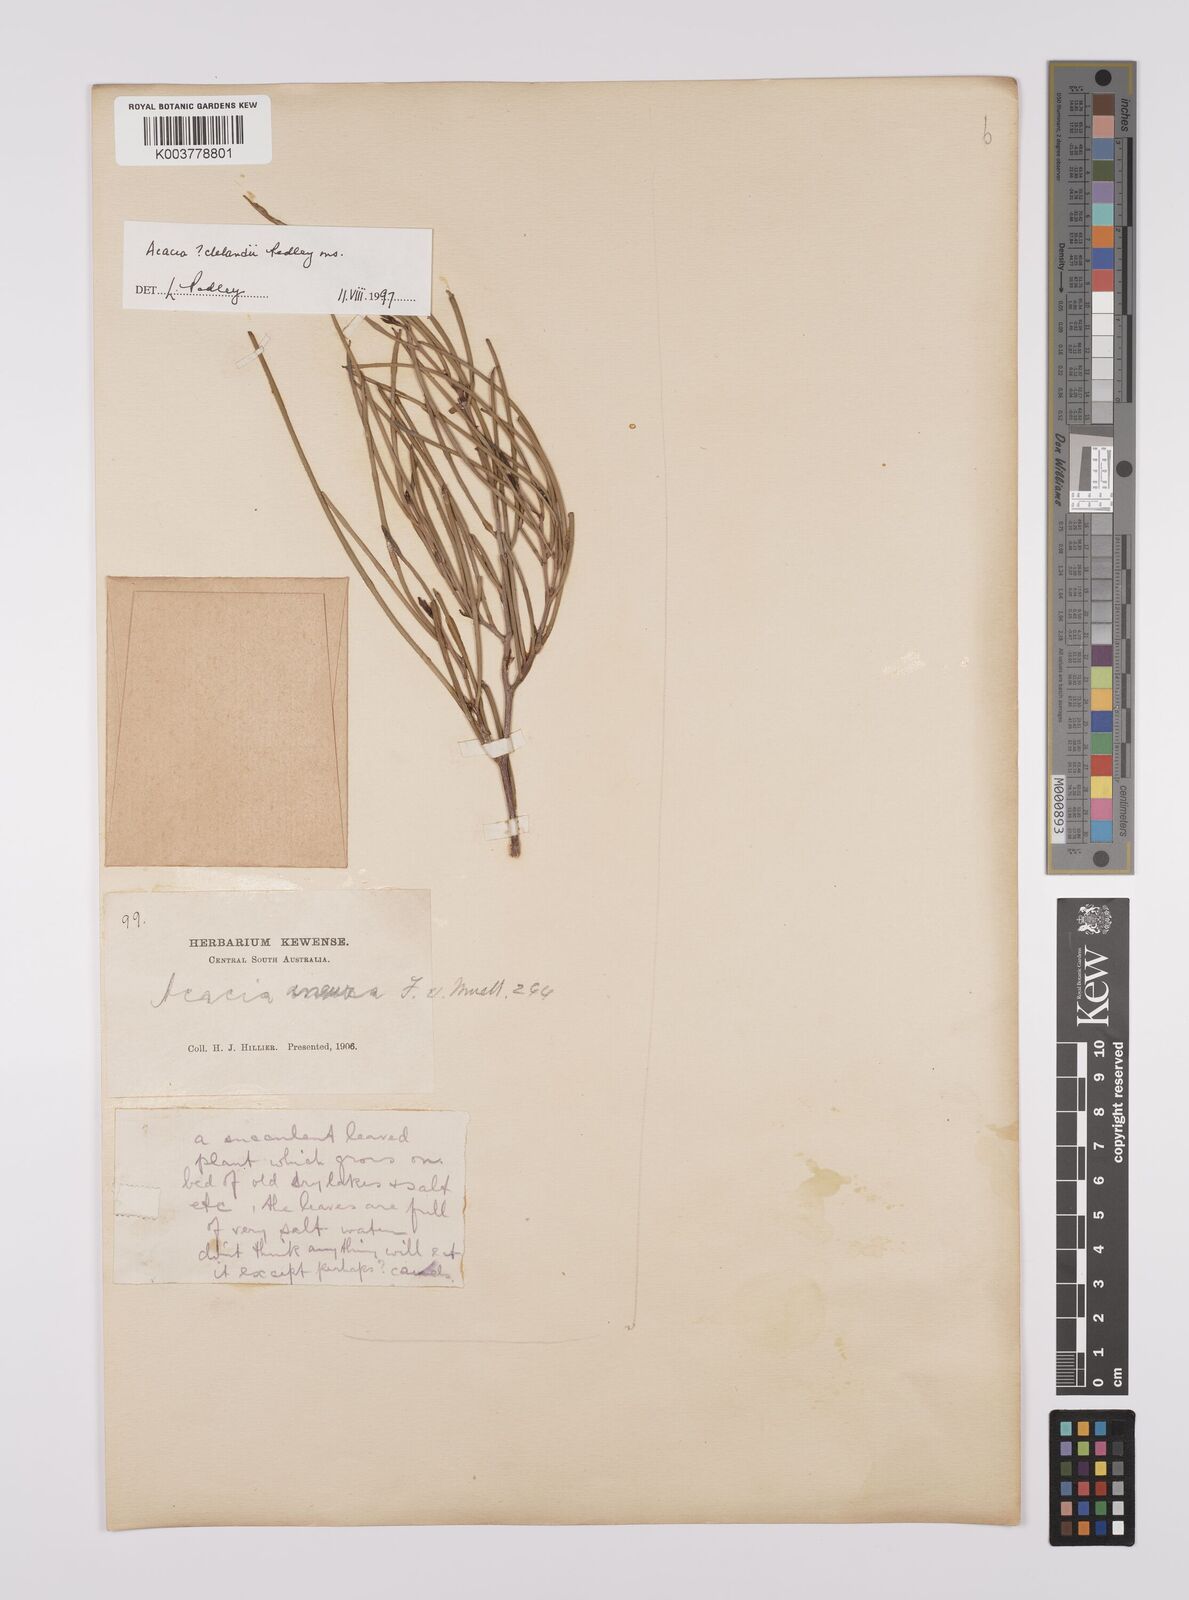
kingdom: Plantae
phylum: Tracheophyta
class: Magnoliopsida
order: Fabales
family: Fabaceae
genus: Acacia
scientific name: Acacia clelandii
